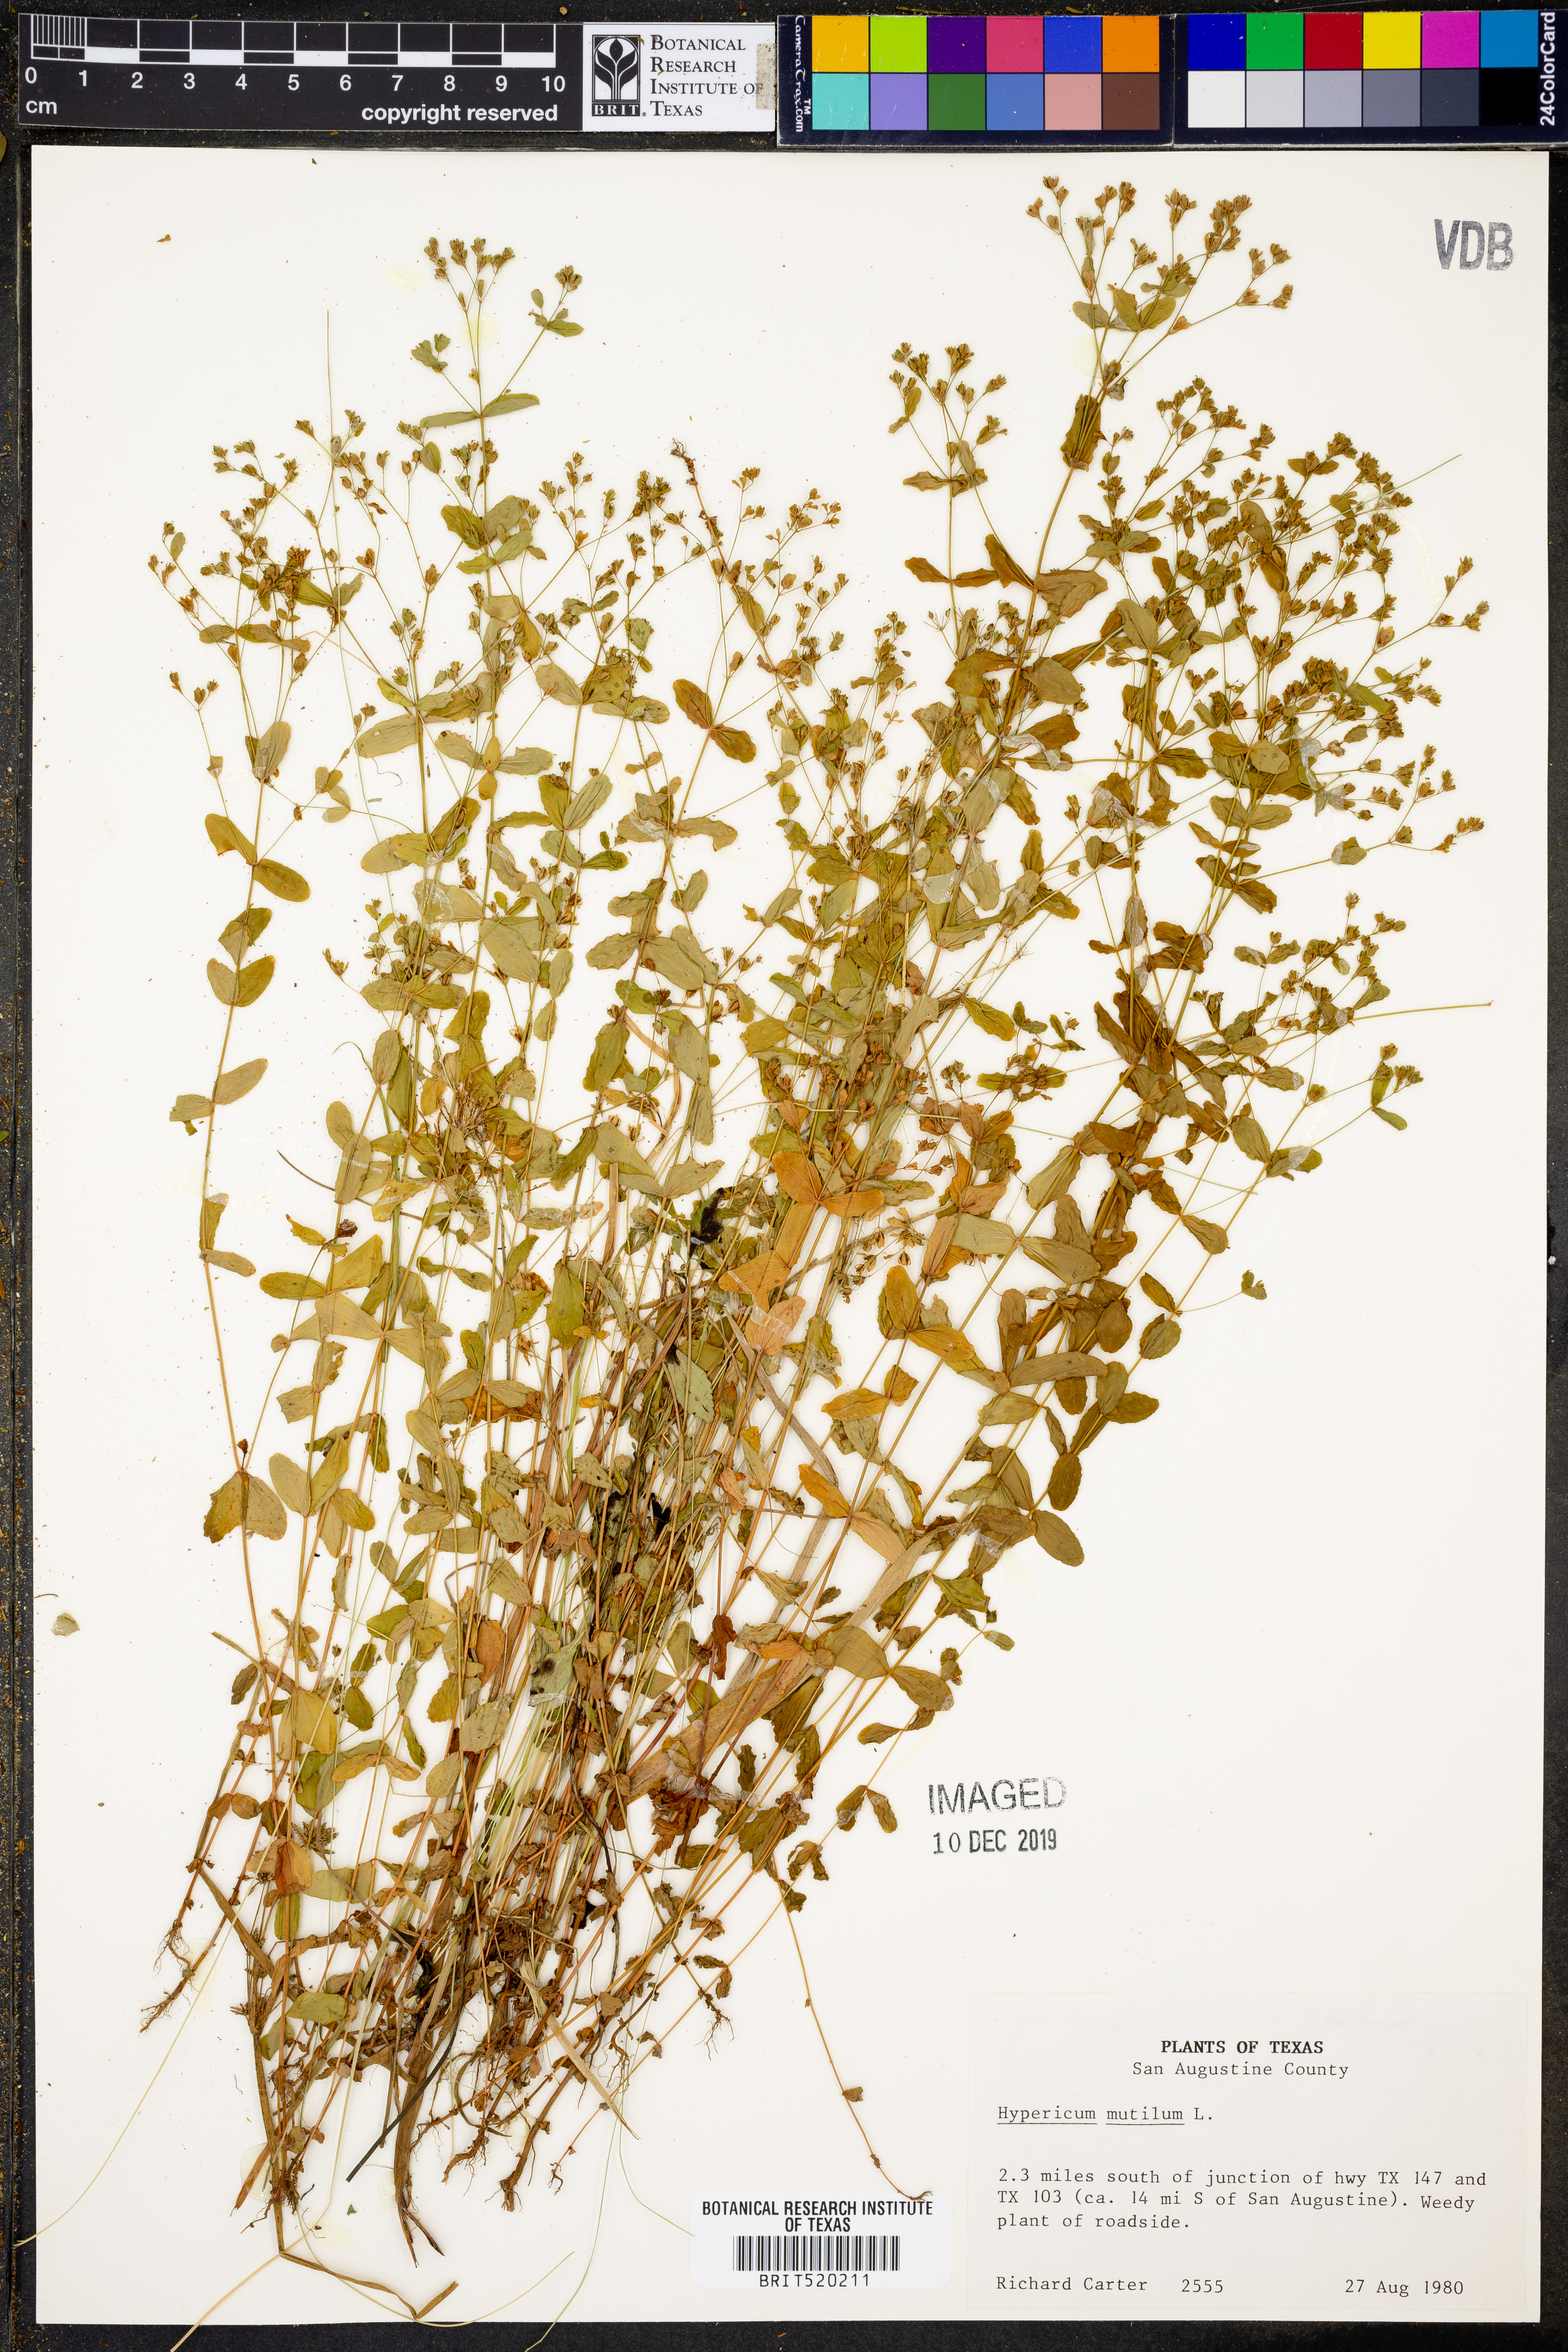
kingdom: Plantae
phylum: Tracheophyta
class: Magnoliopsida
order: Malpighiales
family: Hypericaceae
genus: Hypericum
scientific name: Hypericum mutilum
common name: Dwarf st. john's-wort
